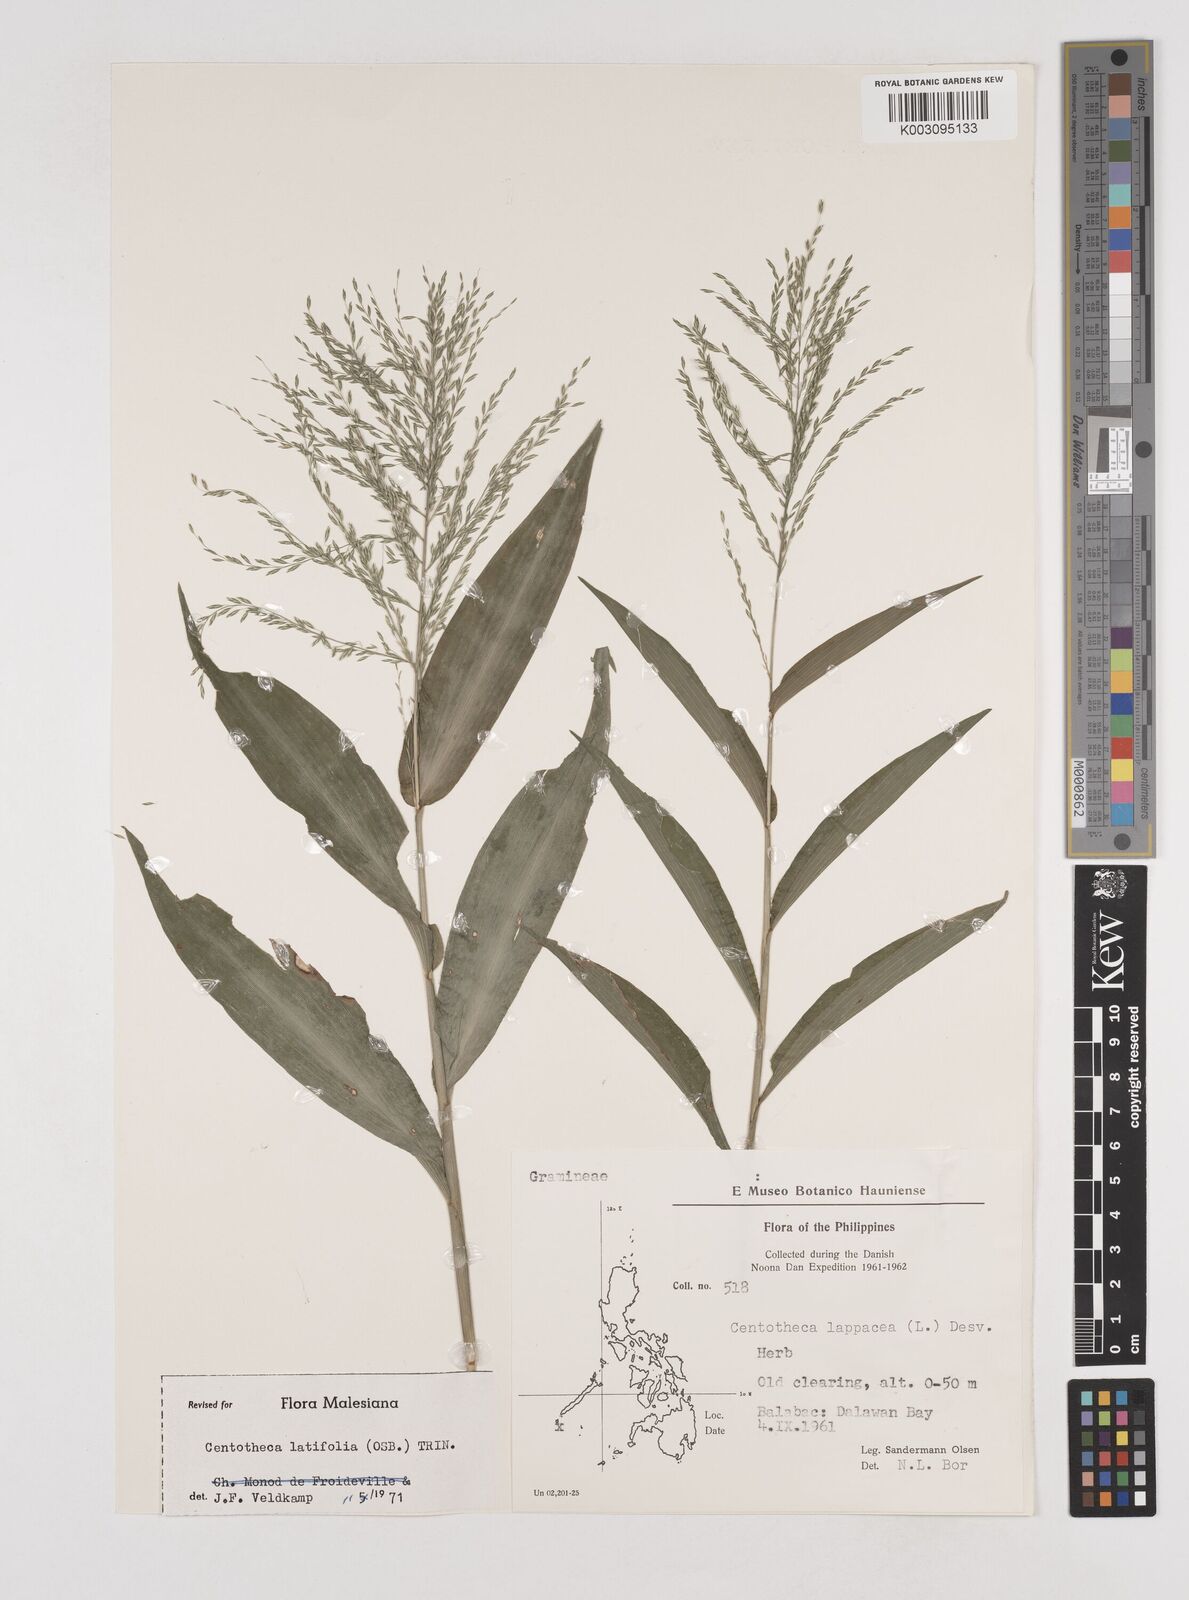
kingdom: Plantae
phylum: Tracheophyta
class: Liliopsida
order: Poales
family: Poaceae
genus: Centotheca
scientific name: Centotheca lappacea
